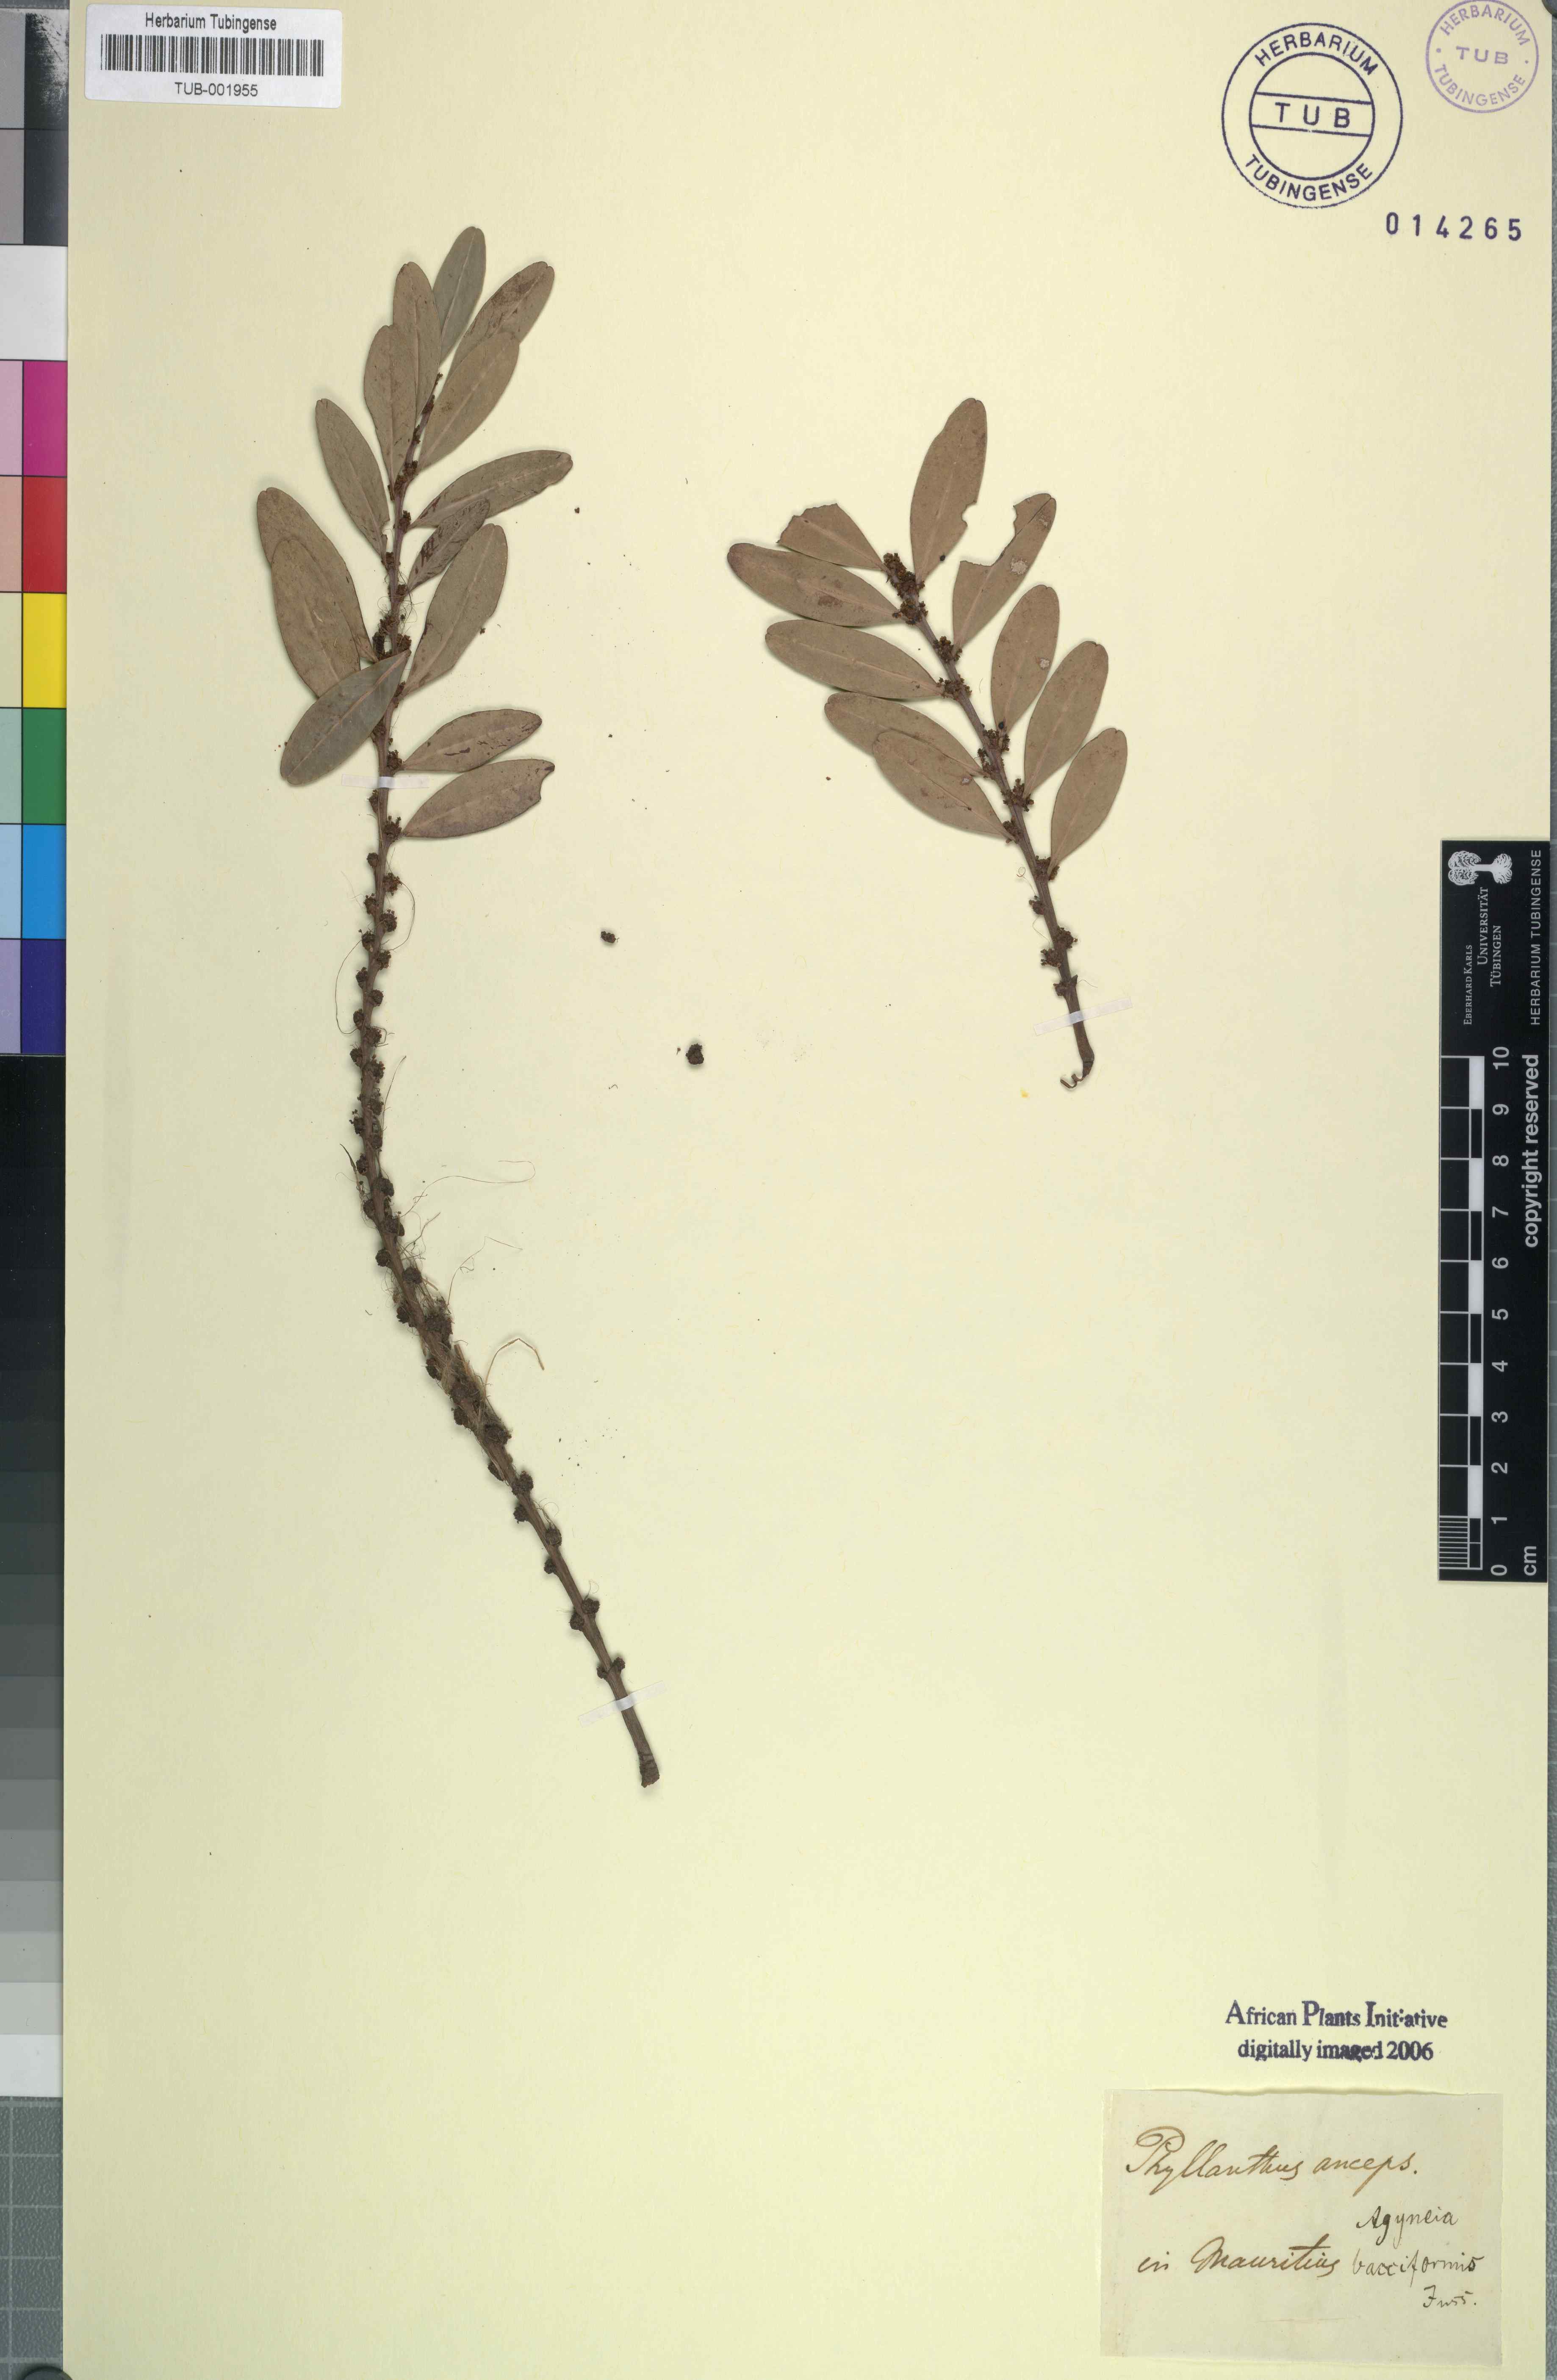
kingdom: Plantae
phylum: Tracheophyta
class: Magnoliopsida
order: Malpighiales
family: Phyllanthaceae
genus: Phyllanthus
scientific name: Phyllanthus anceps
